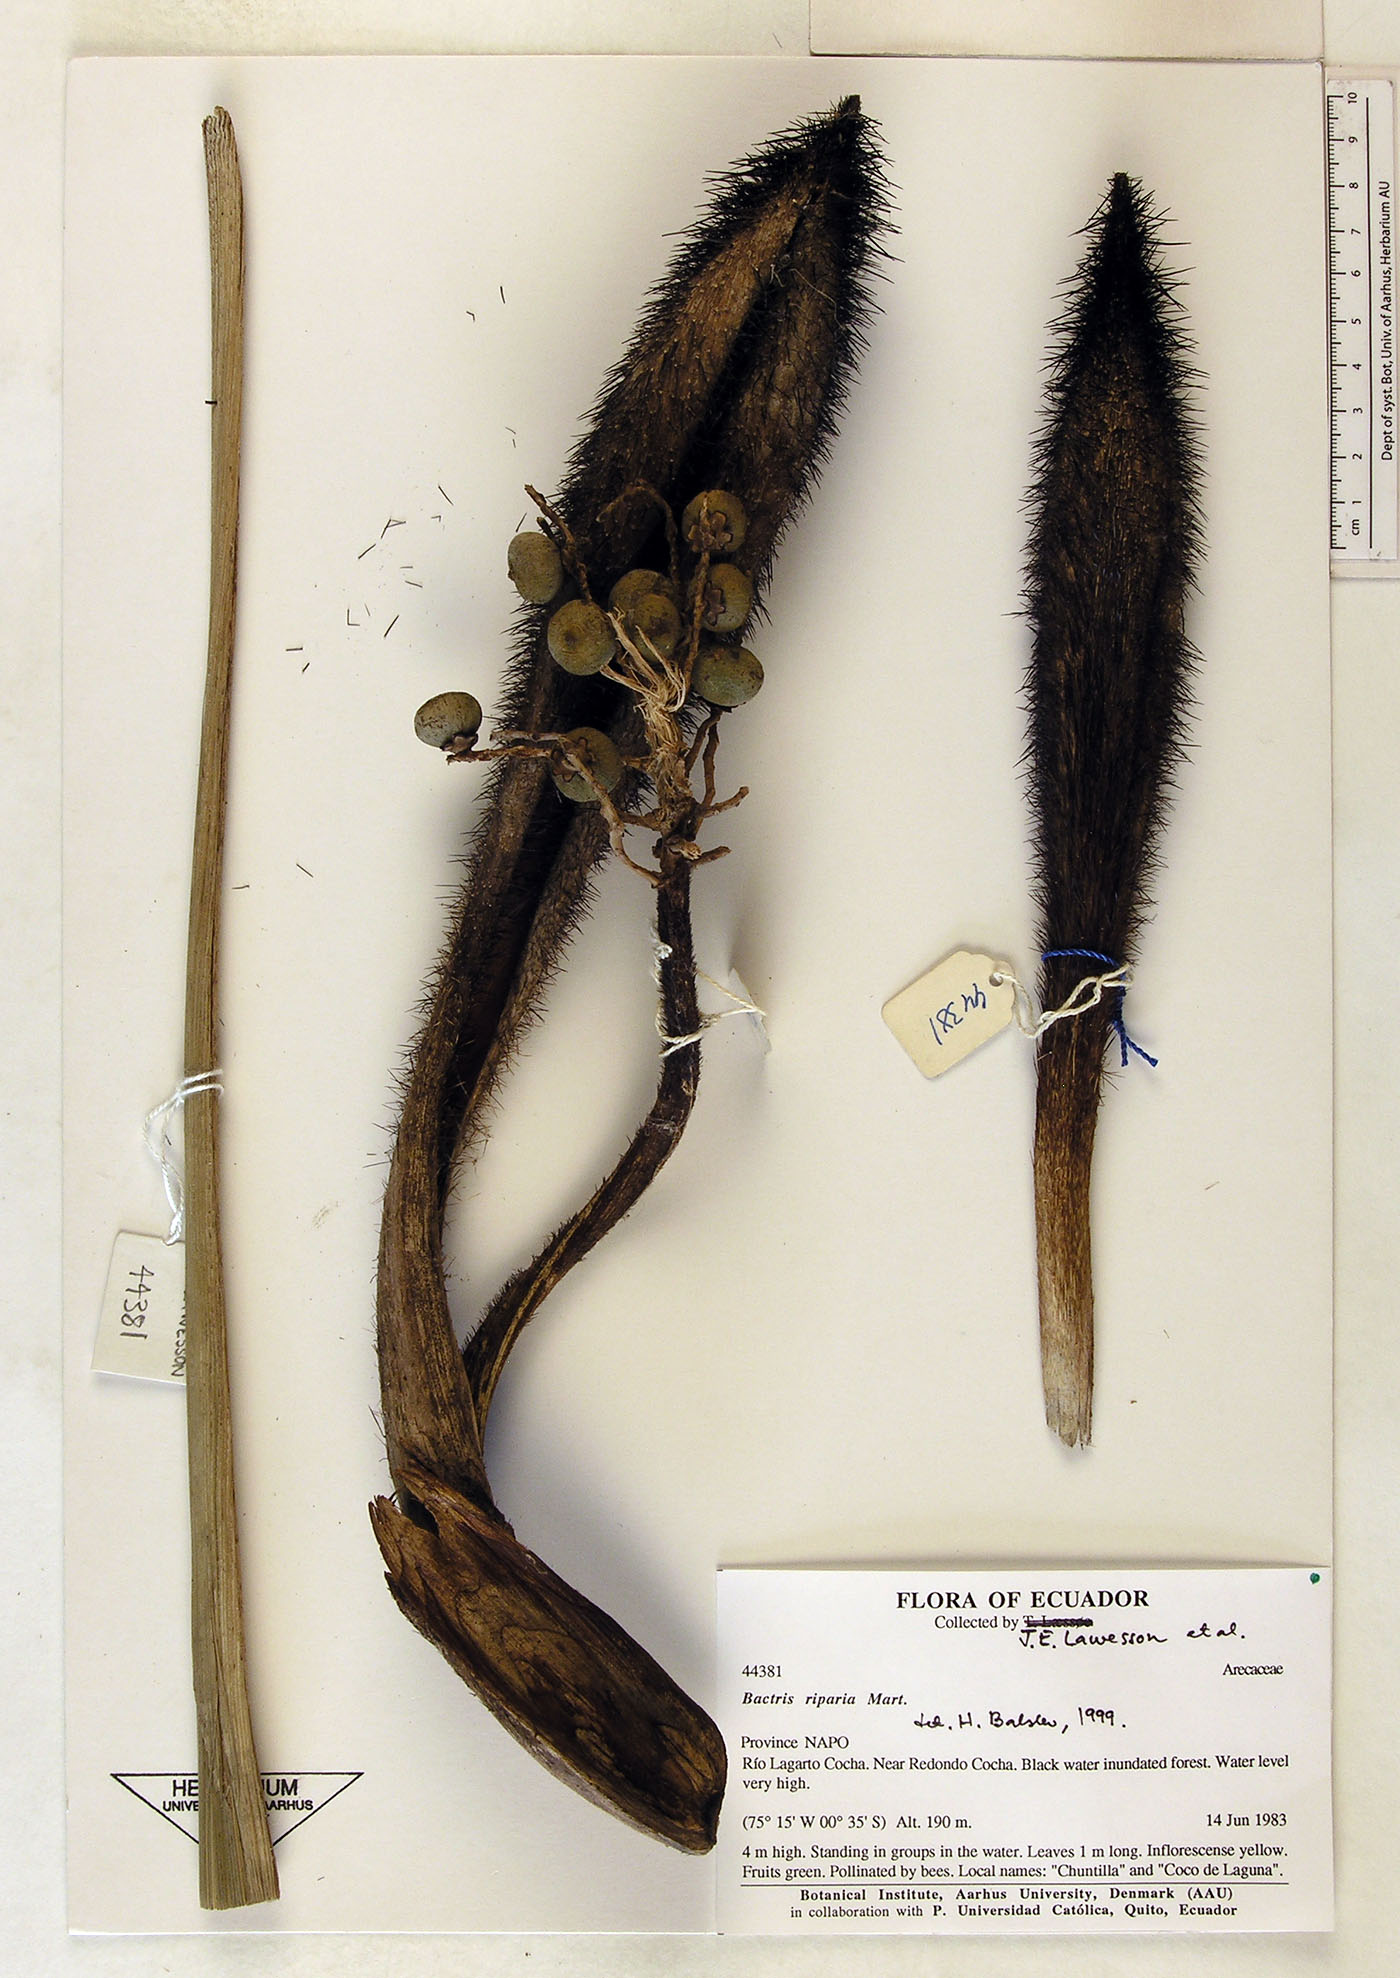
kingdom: Plantae
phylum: Tracheophyta
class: Liliopsida
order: Arecales
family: Arecaceae
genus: Bactris
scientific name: Bactris riparia
